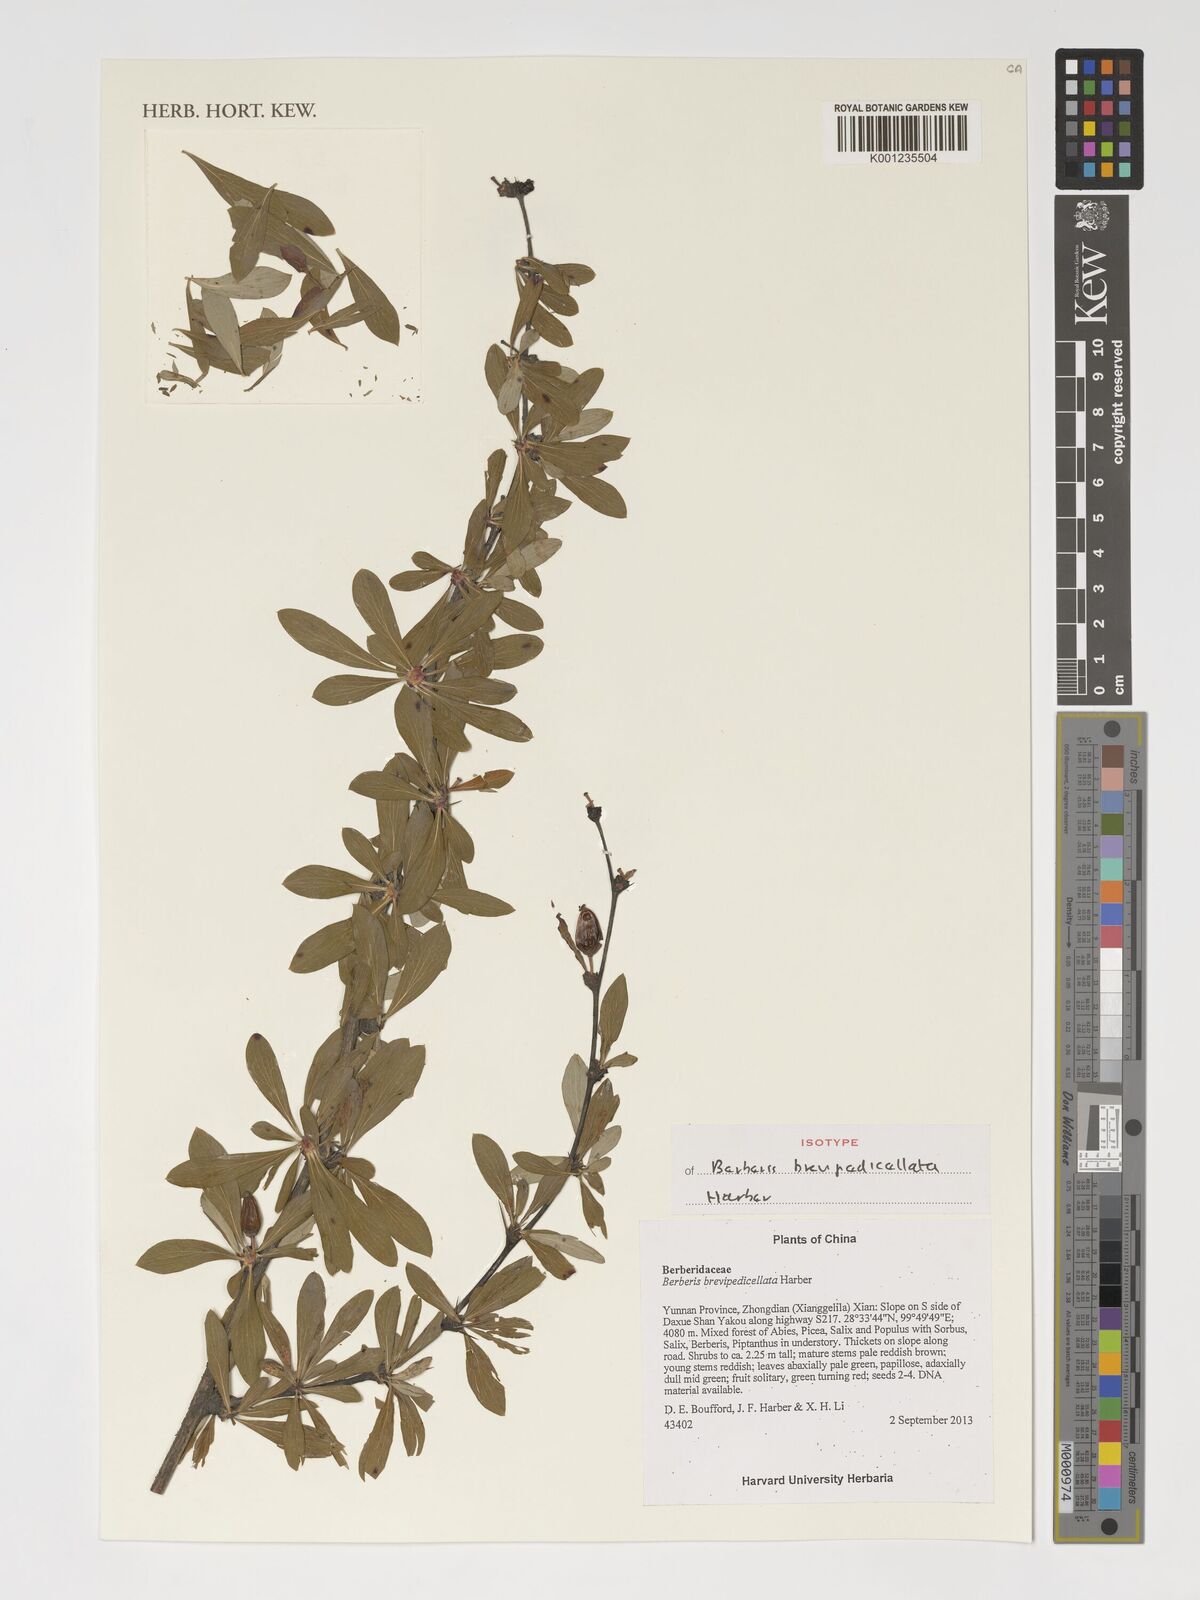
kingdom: Plantae
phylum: Tracheophyta
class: Magnoliopsida
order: Ranunculales
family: Berberidaceae
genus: Berberis
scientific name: Berberis brevipedicellata
